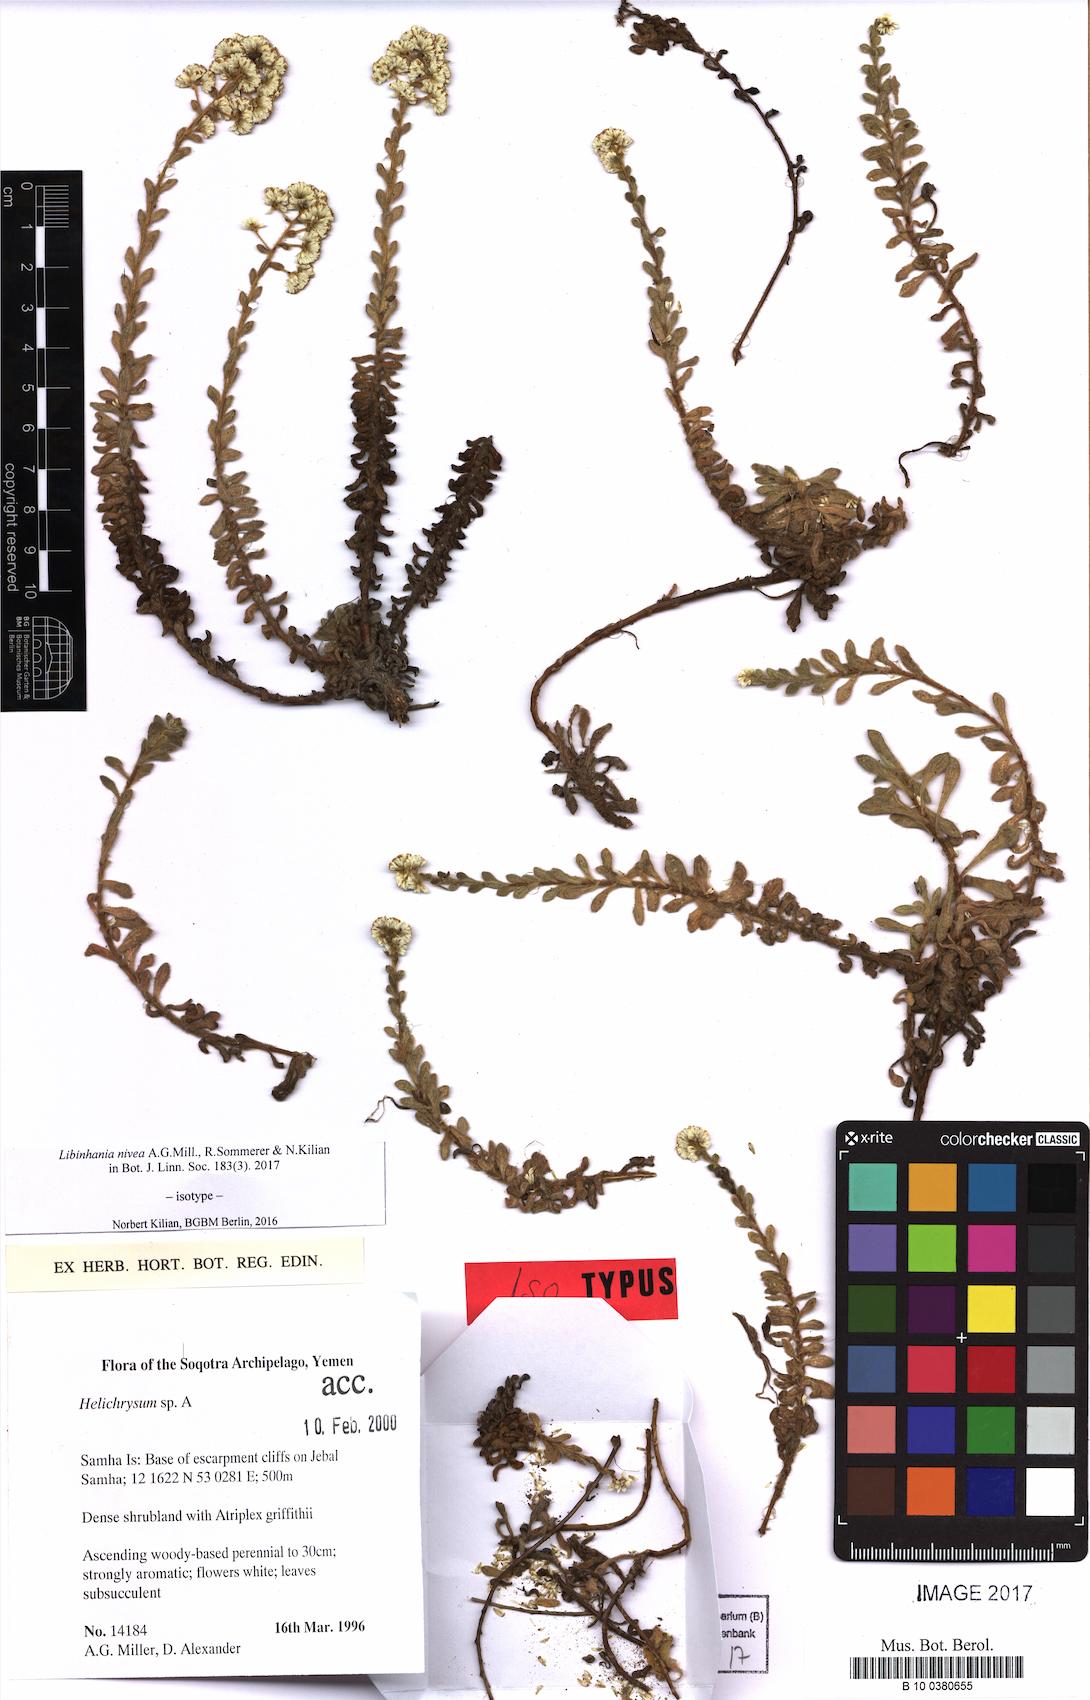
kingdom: Plantae
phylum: Tracheophyta
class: Magnoliopsida
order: Asterales
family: Asteraceae
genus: Libinhania
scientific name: Libinhania nivea
